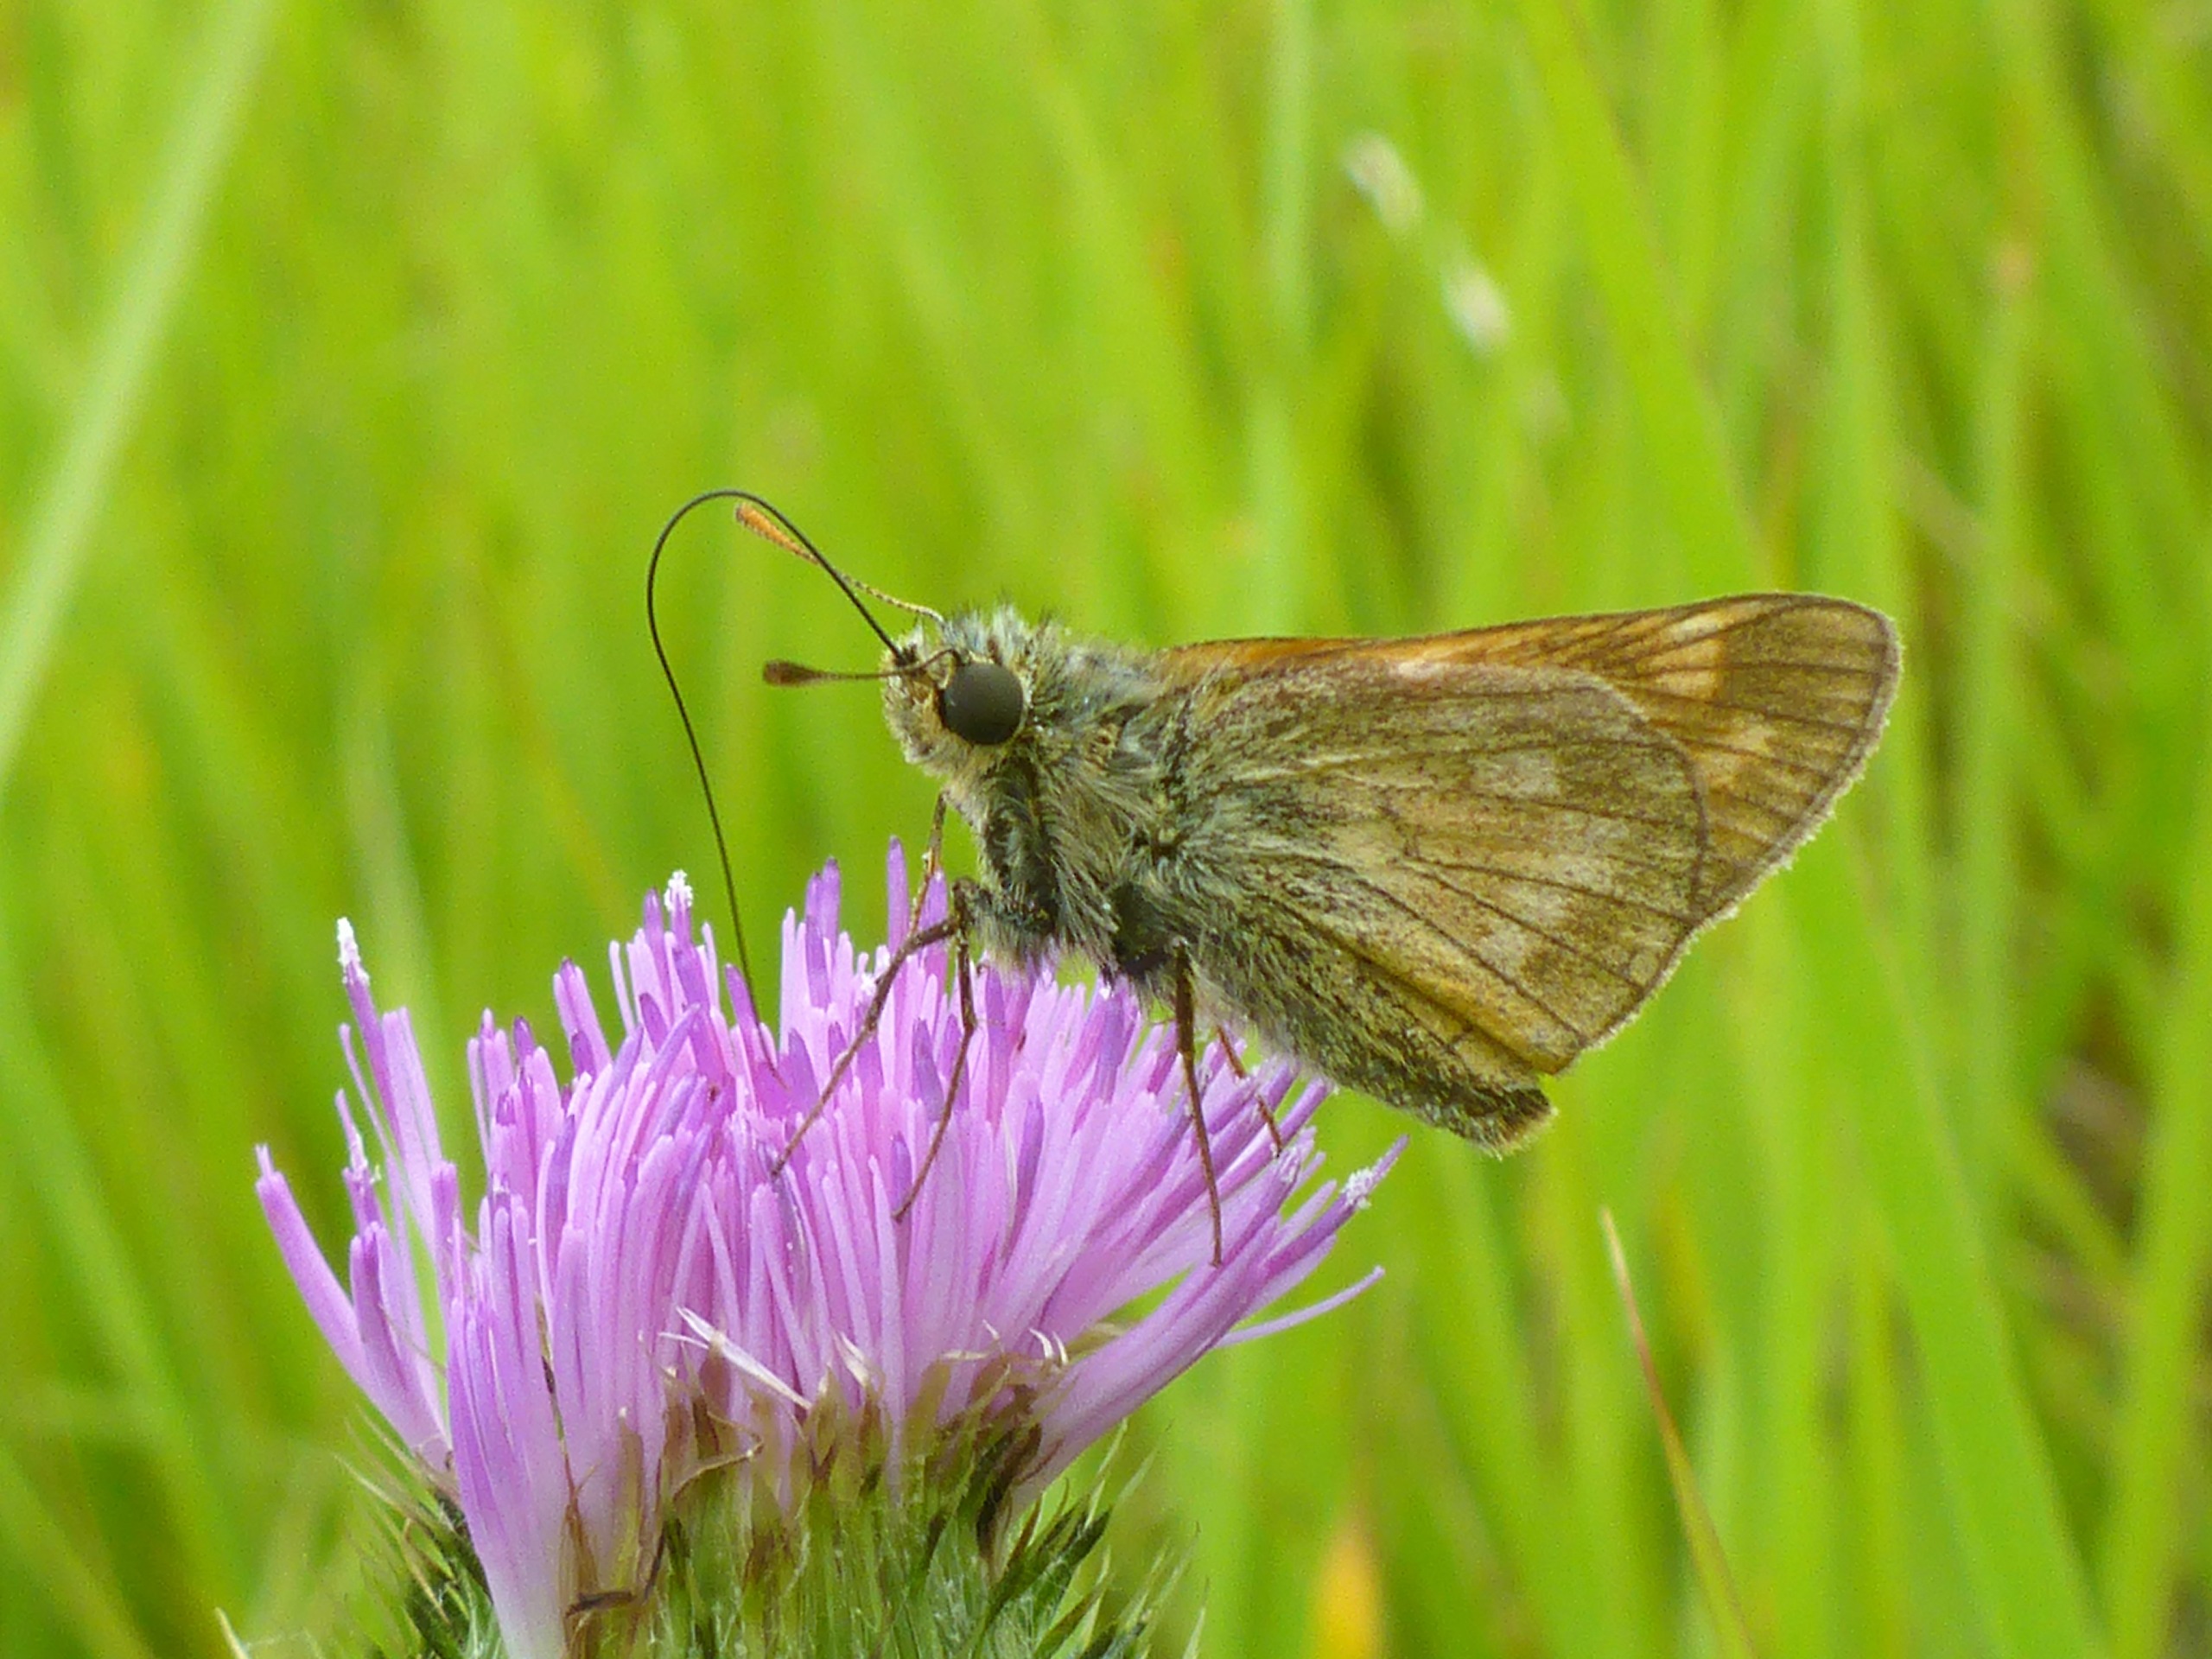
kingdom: Animalia
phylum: Arthropoda
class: Insecta
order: Lepidoptera
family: Hesperiidae
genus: Ochlodes
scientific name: Ochlodes venata
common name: Stor bredpande
